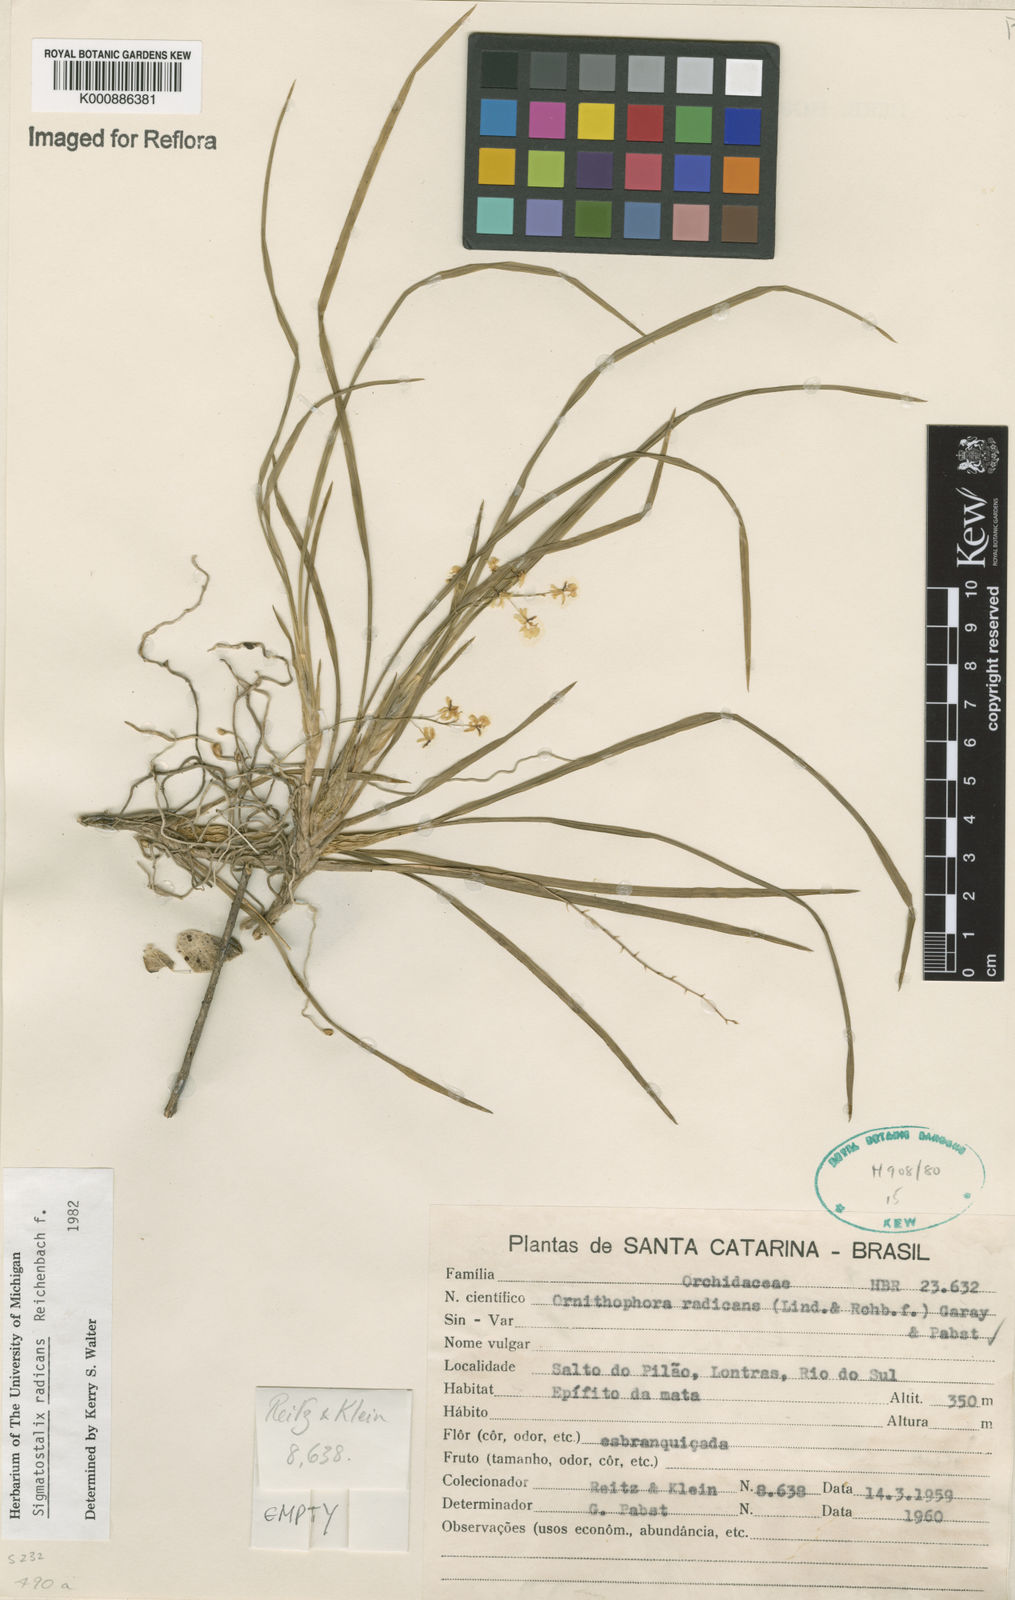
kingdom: Plantae
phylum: Tracheophyta
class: Liliopsida
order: Asparagales
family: Orchidaceae
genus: Gomesa
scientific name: Gomesa radicans
